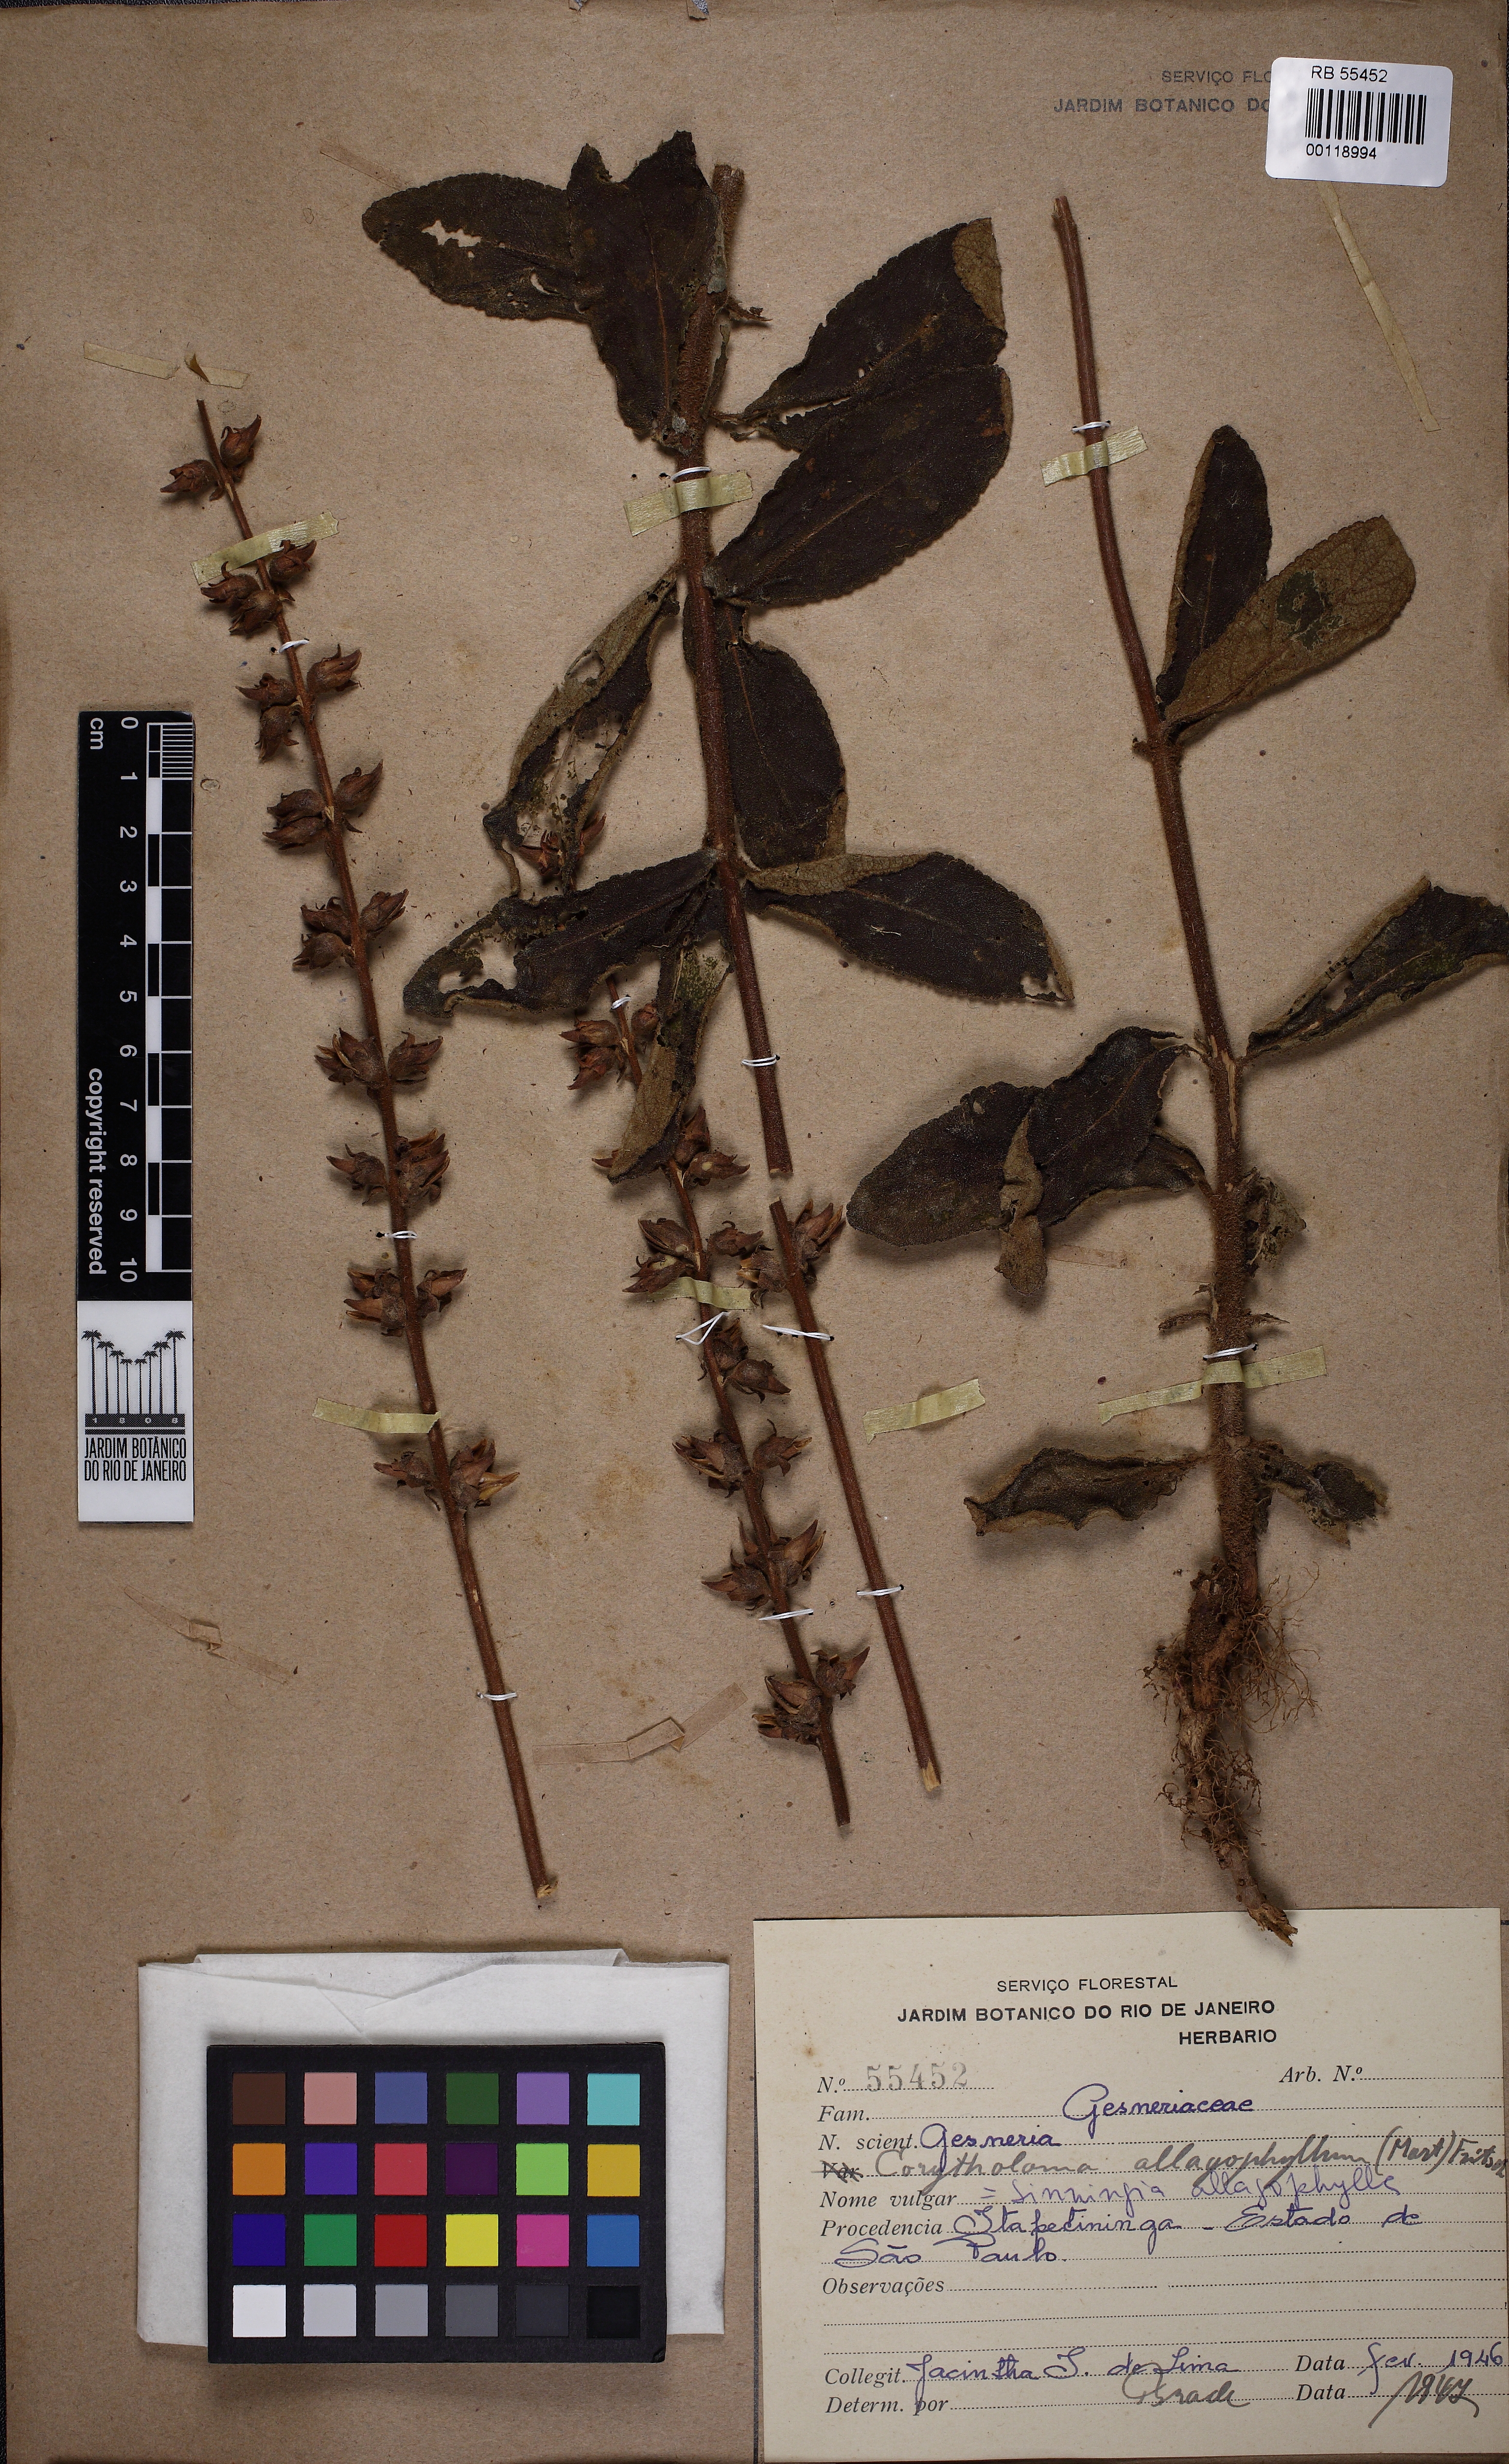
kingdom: Plantae
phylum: Tracheophyta
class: Magnoliopsida
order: Lamiales
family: Gesneriaceae
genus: Sinningia
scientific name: Sinningia allagophylla
